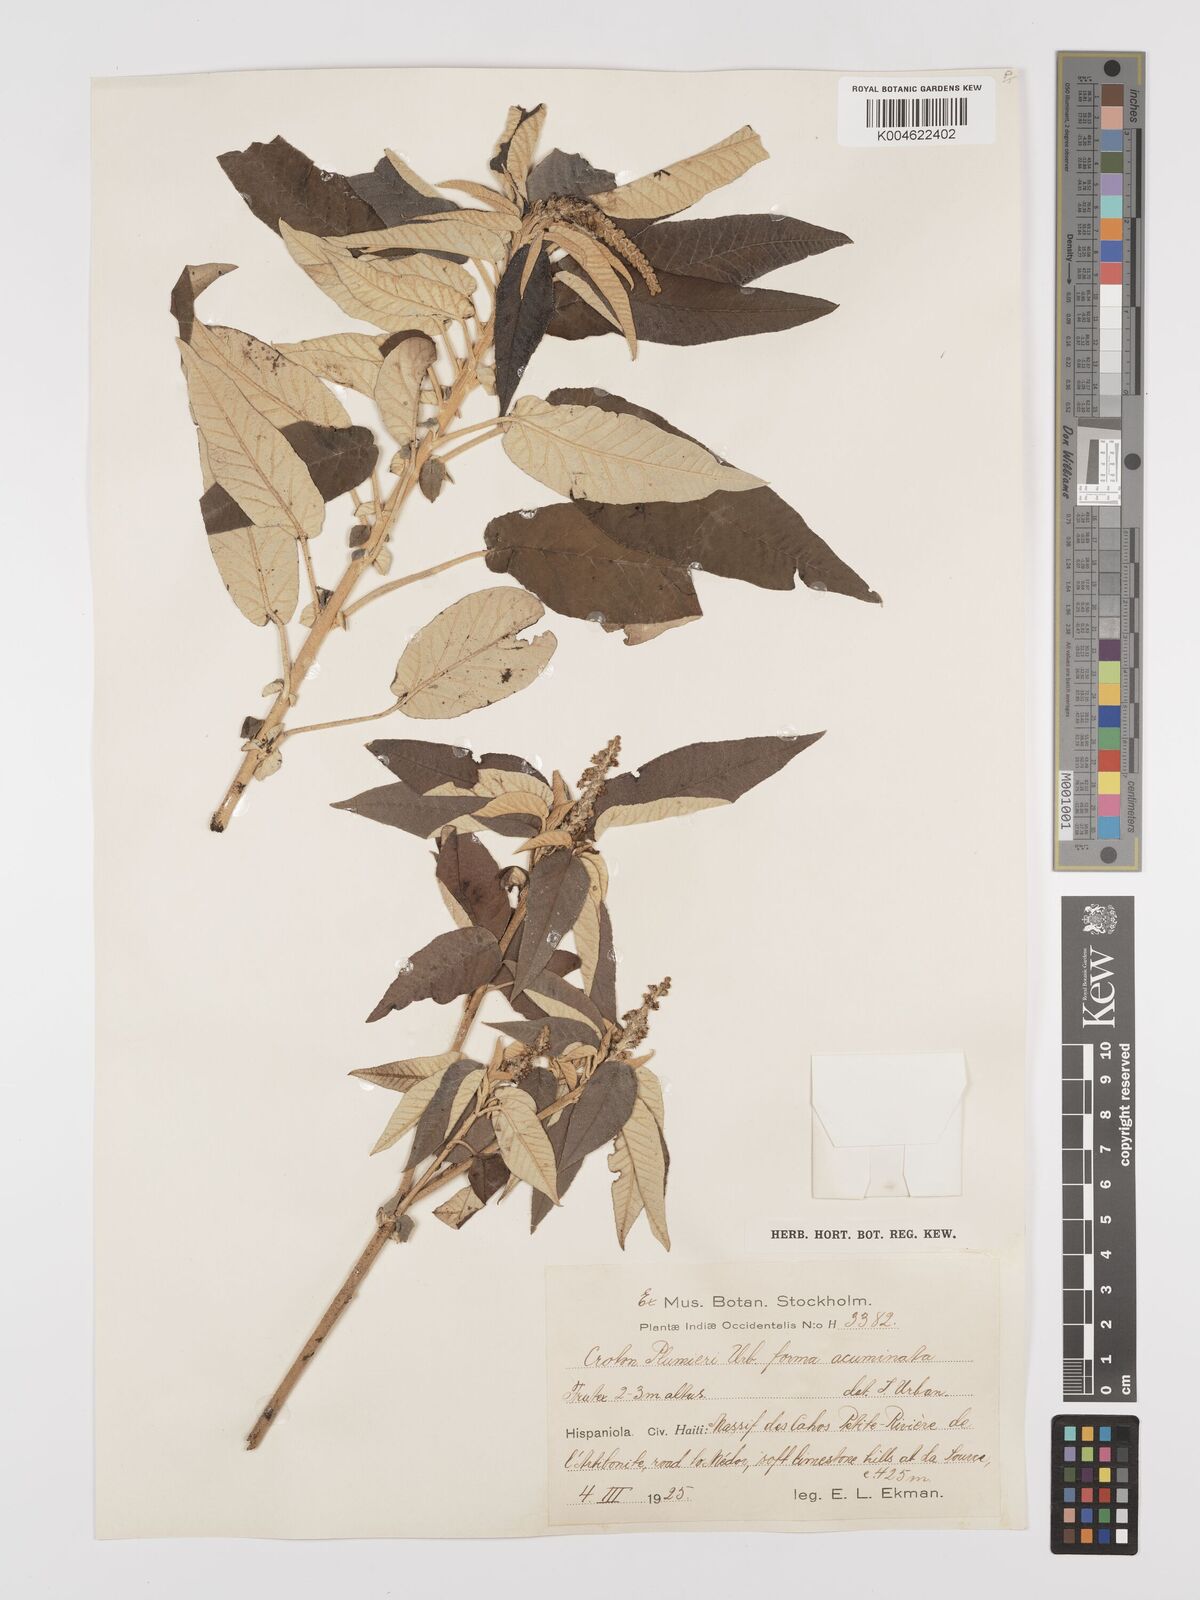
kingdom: Plantae
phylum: Tracheophyta
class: Magnoliopsida
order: Malpighiales
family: Euphorbiaceae
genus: Croton
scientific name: Croton vaillantii
